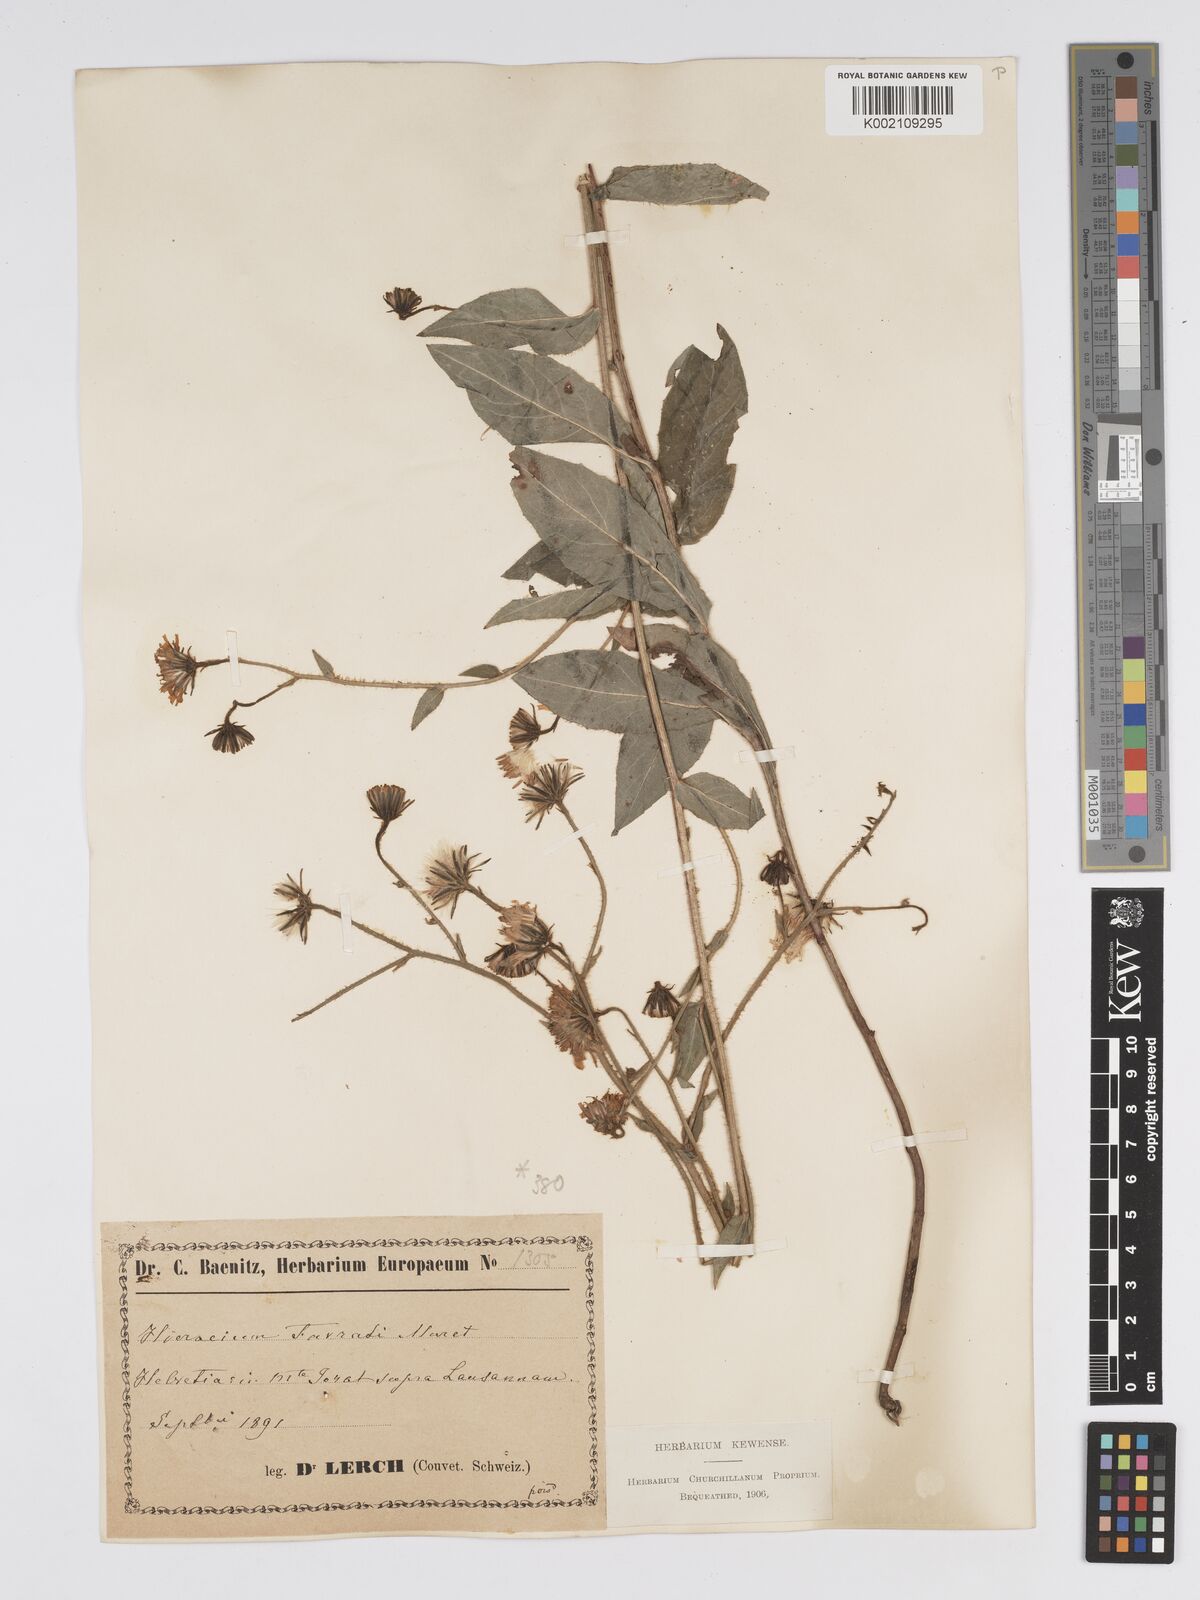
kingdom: Plantae
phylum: Tracheophyta
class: Magnoliopsida
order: Asterales
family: Asteraceae
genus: Hieracium
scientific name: Hieracium favratii
